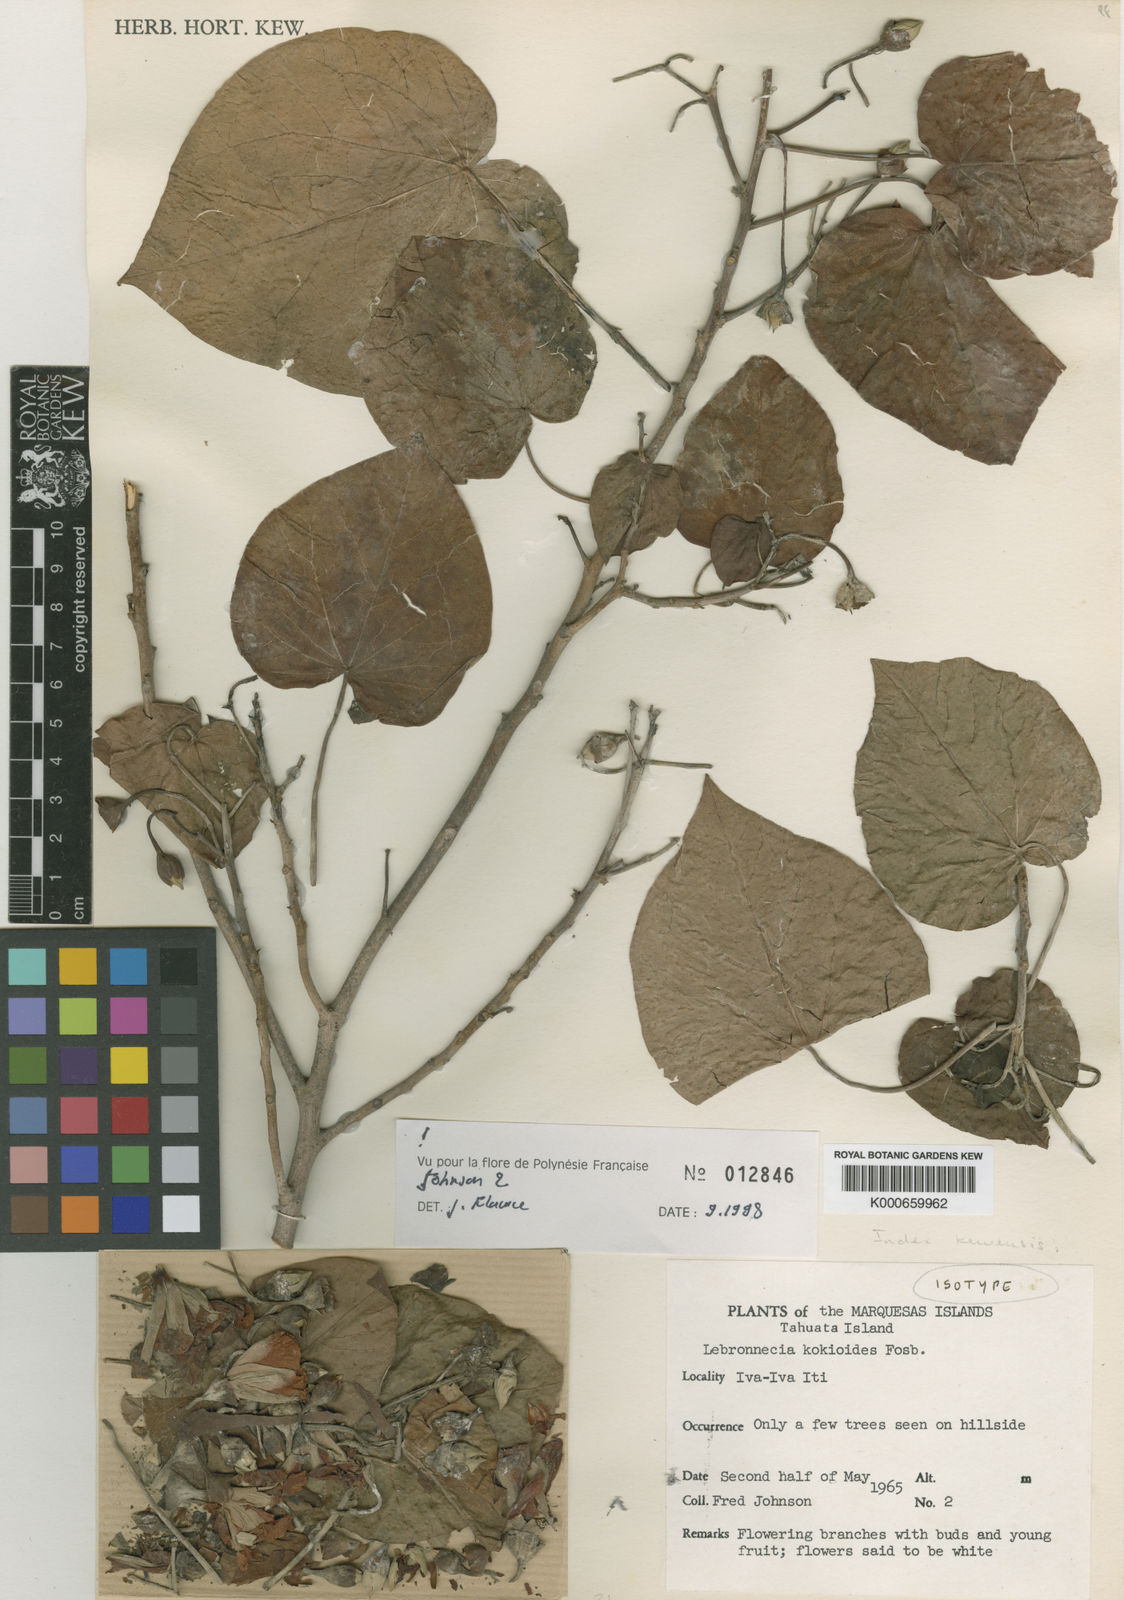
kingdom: Plantae
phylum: Tracheophyta
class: Magnoliopsida
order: Malvales
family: Malvaceae
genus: Lebronnecia
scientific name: Lebronnecia kokioides
